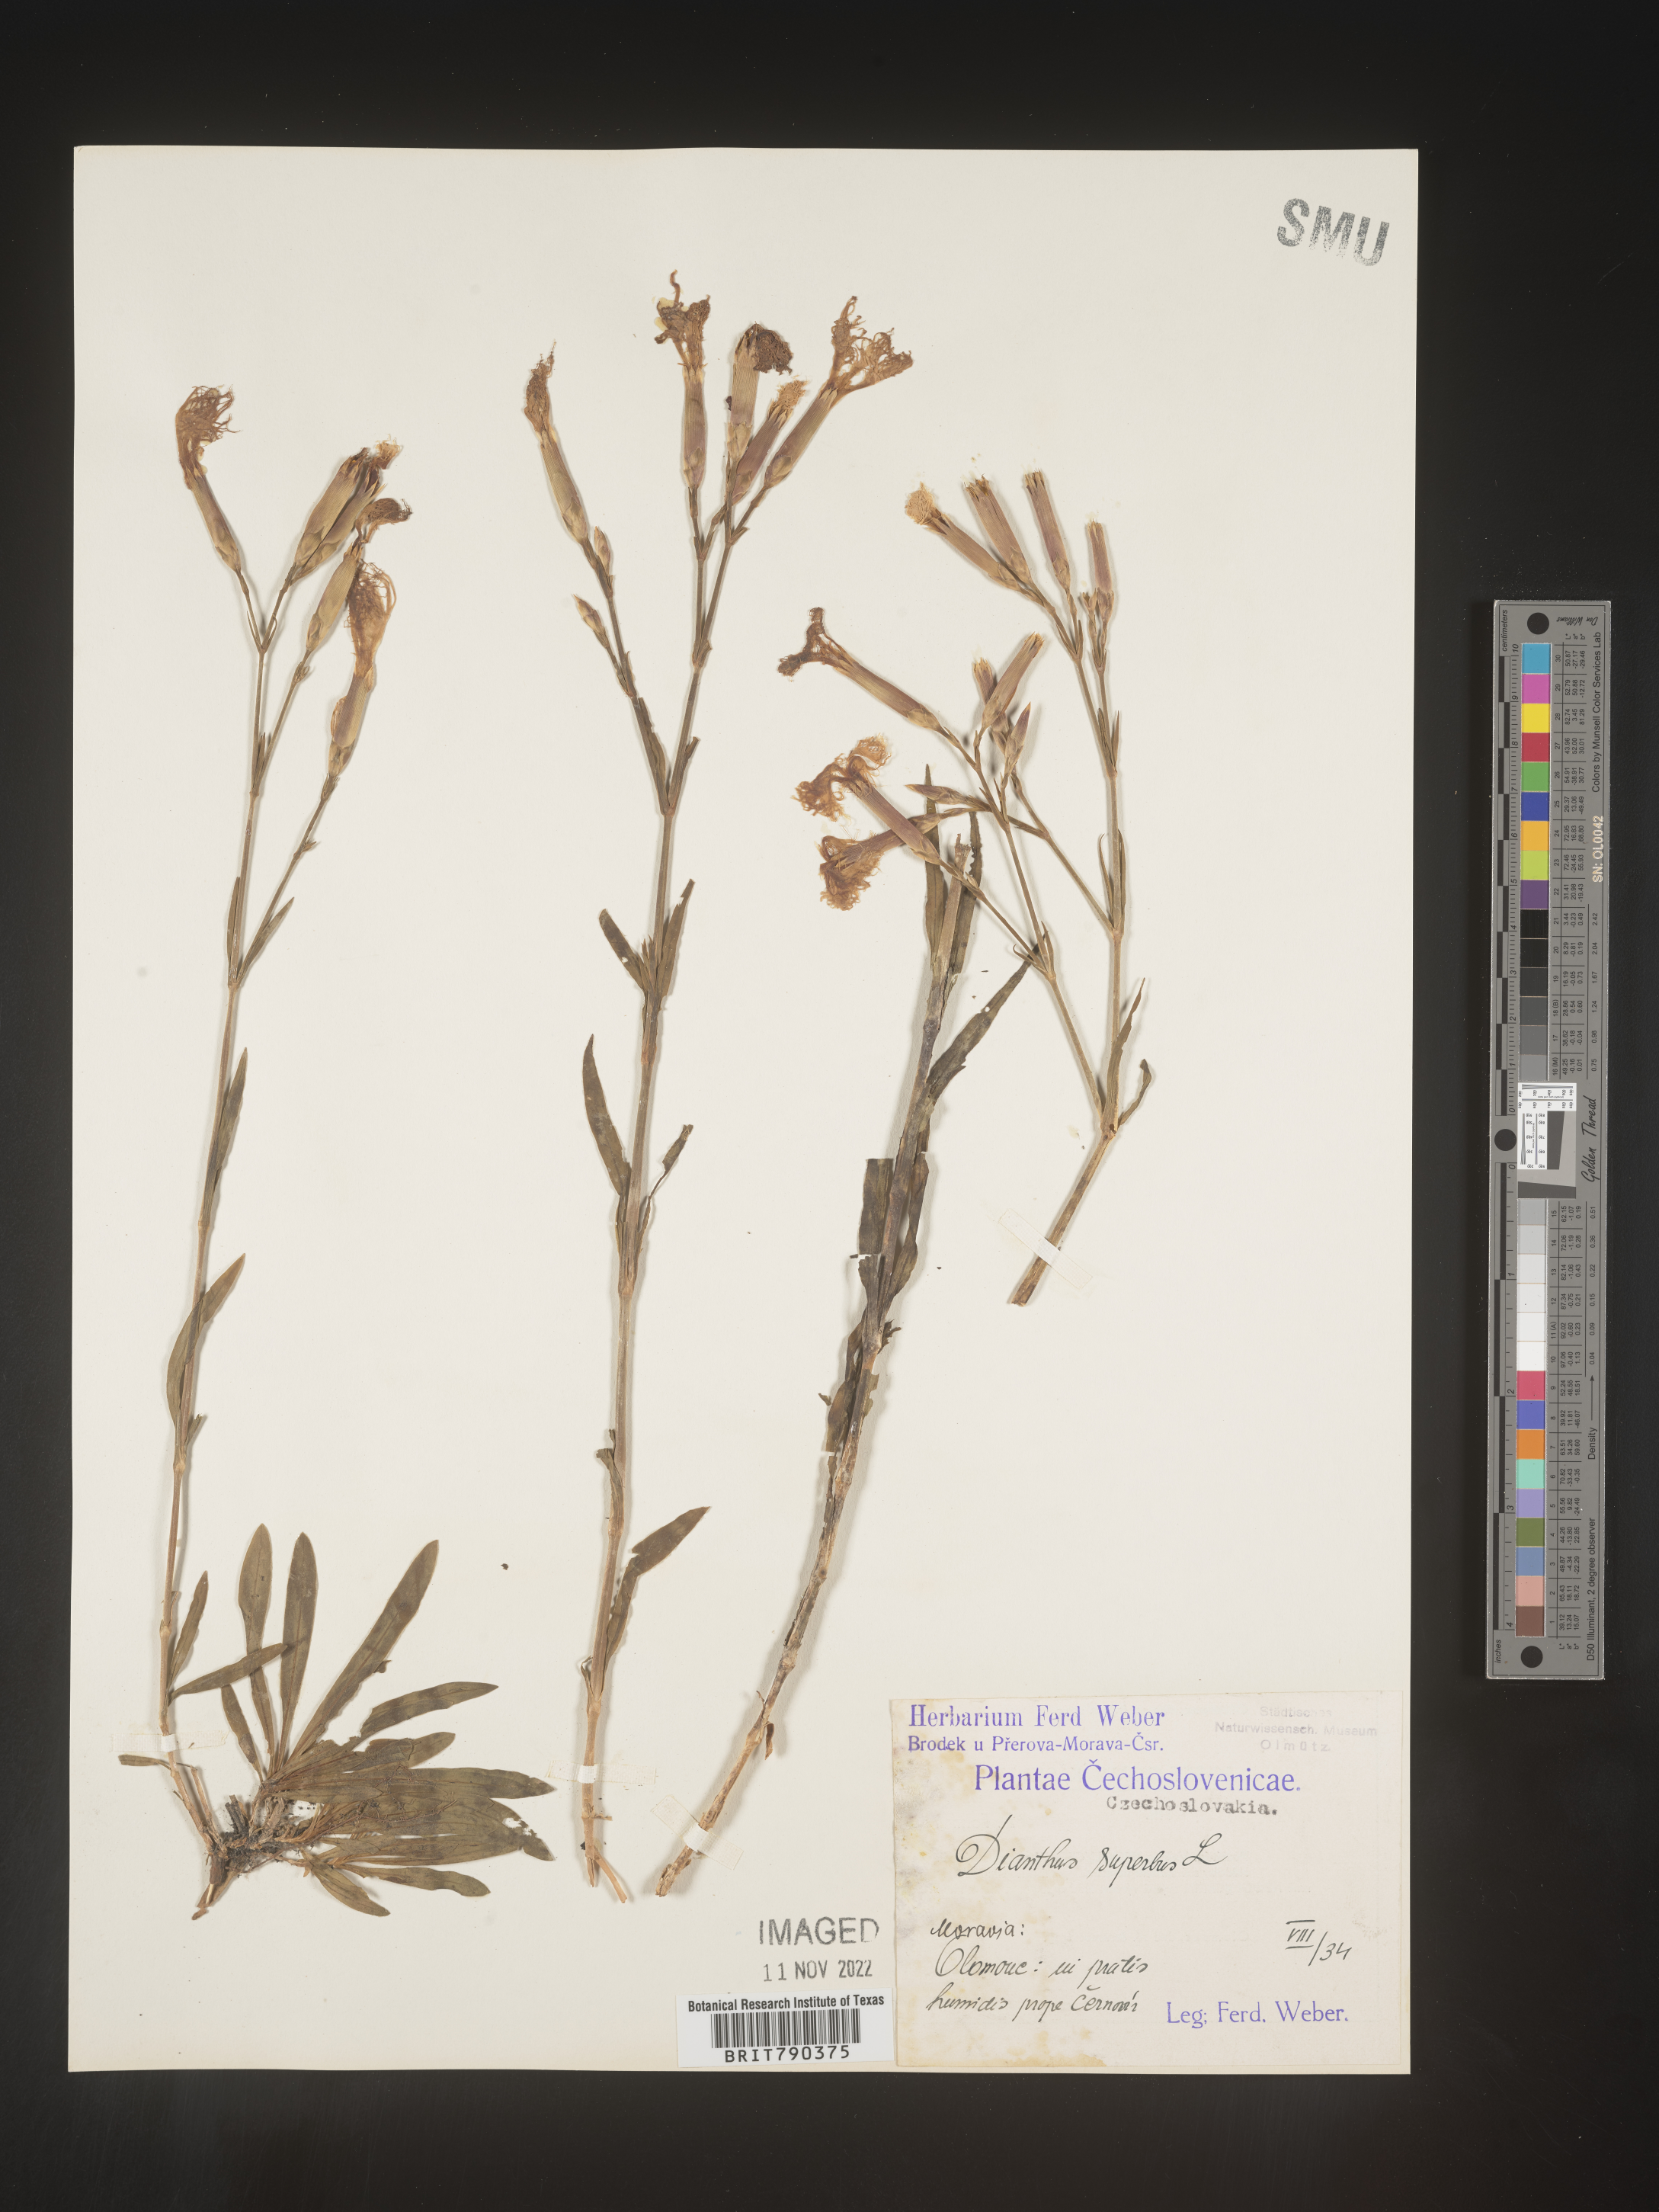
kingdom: Plantae
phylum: Tracheophyta
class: Magnoliopsida
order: Caryophyllales
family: Caryophyllaceae
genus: Dianthus
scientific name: Dianthus superbus
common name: Fringed pink
